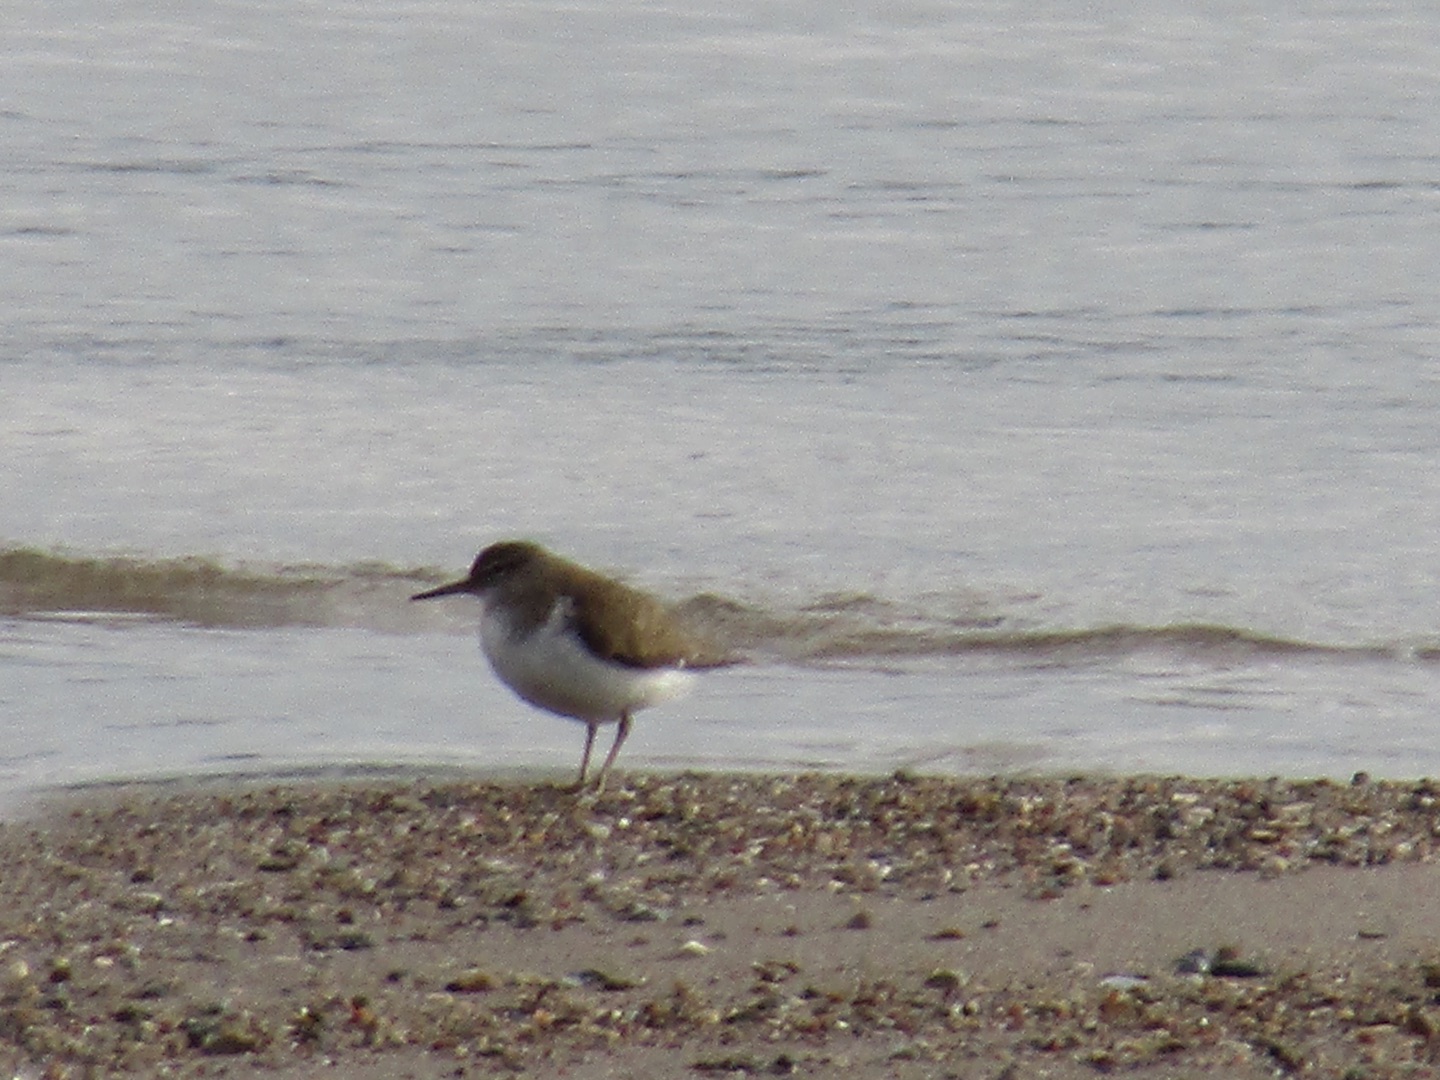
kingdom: Animalia
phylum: Chordata
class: Aves
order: Charadriiformes
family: Scolopacidae
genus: Actitis
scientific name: Actitis hypoleucos
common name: Mudderklire
